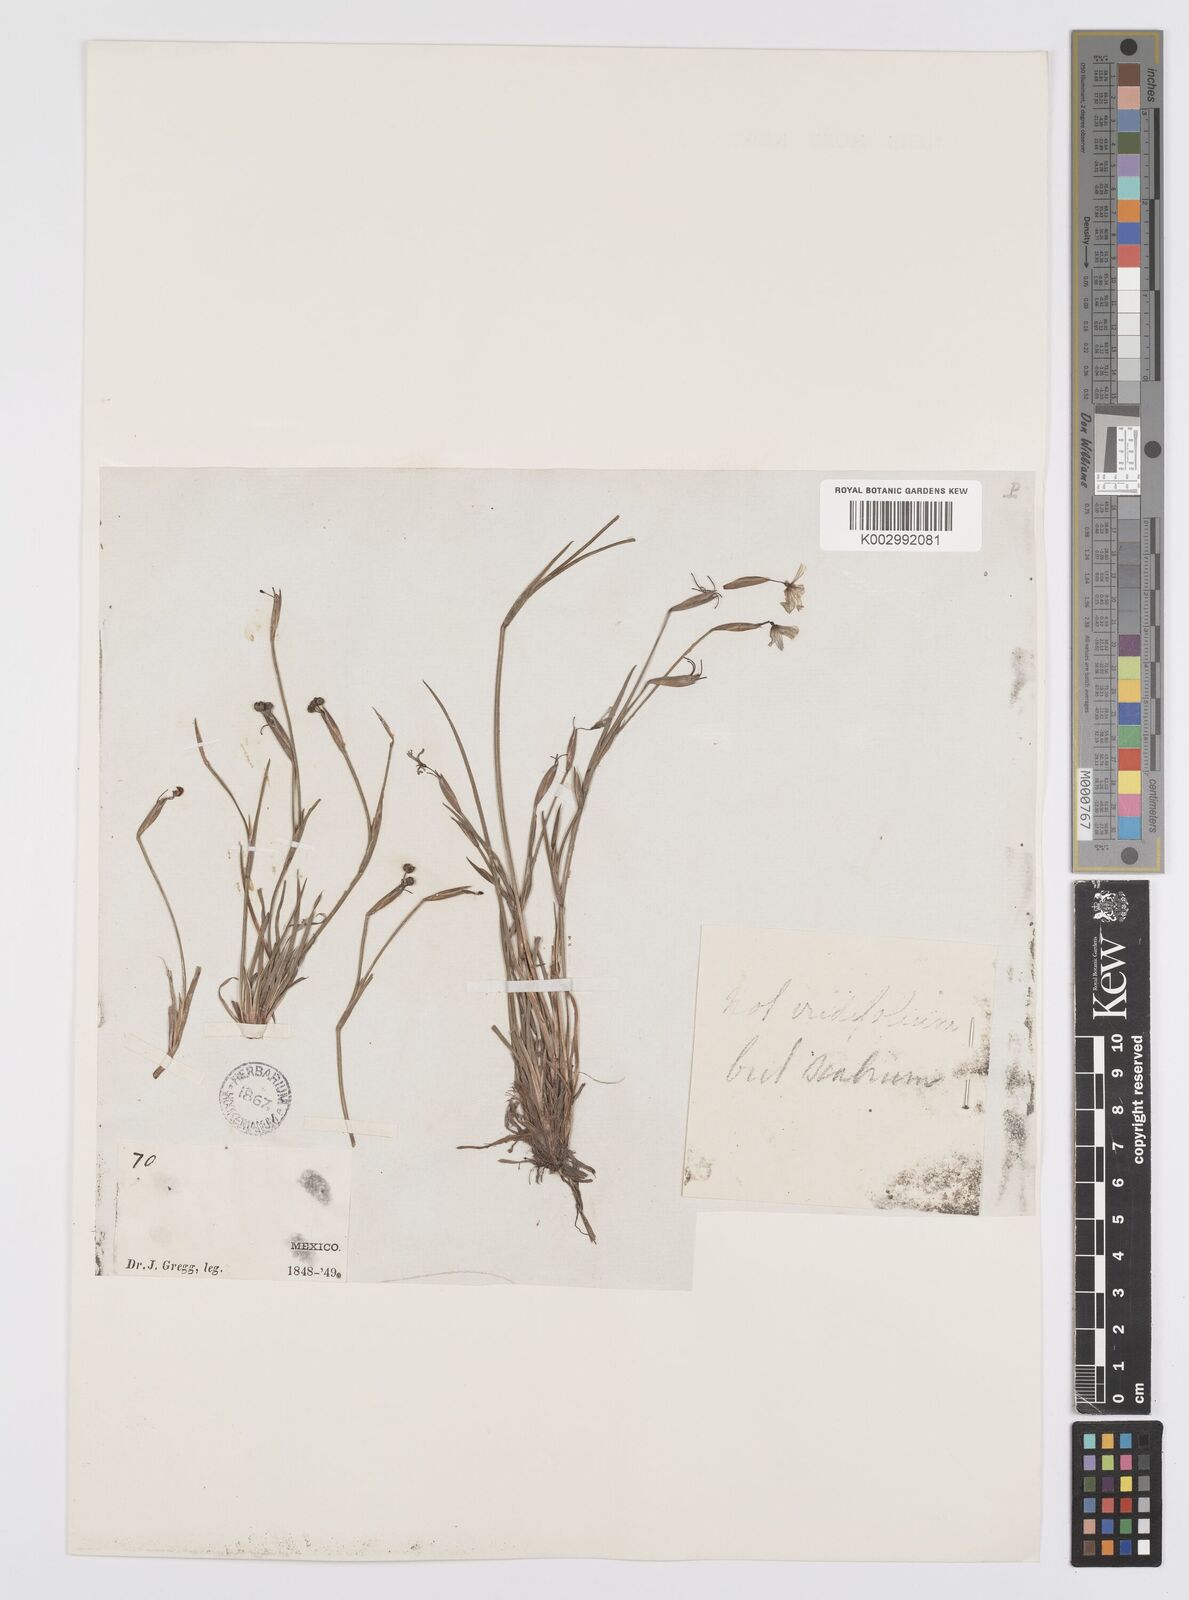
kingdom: Plantae
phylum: Tracheophyta
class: Liliopsida
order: Asparagales
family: Iridaceae
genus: Sisyrinchium
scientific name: Sisyrinchium bermudiana
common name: Blue-eyed-grass
